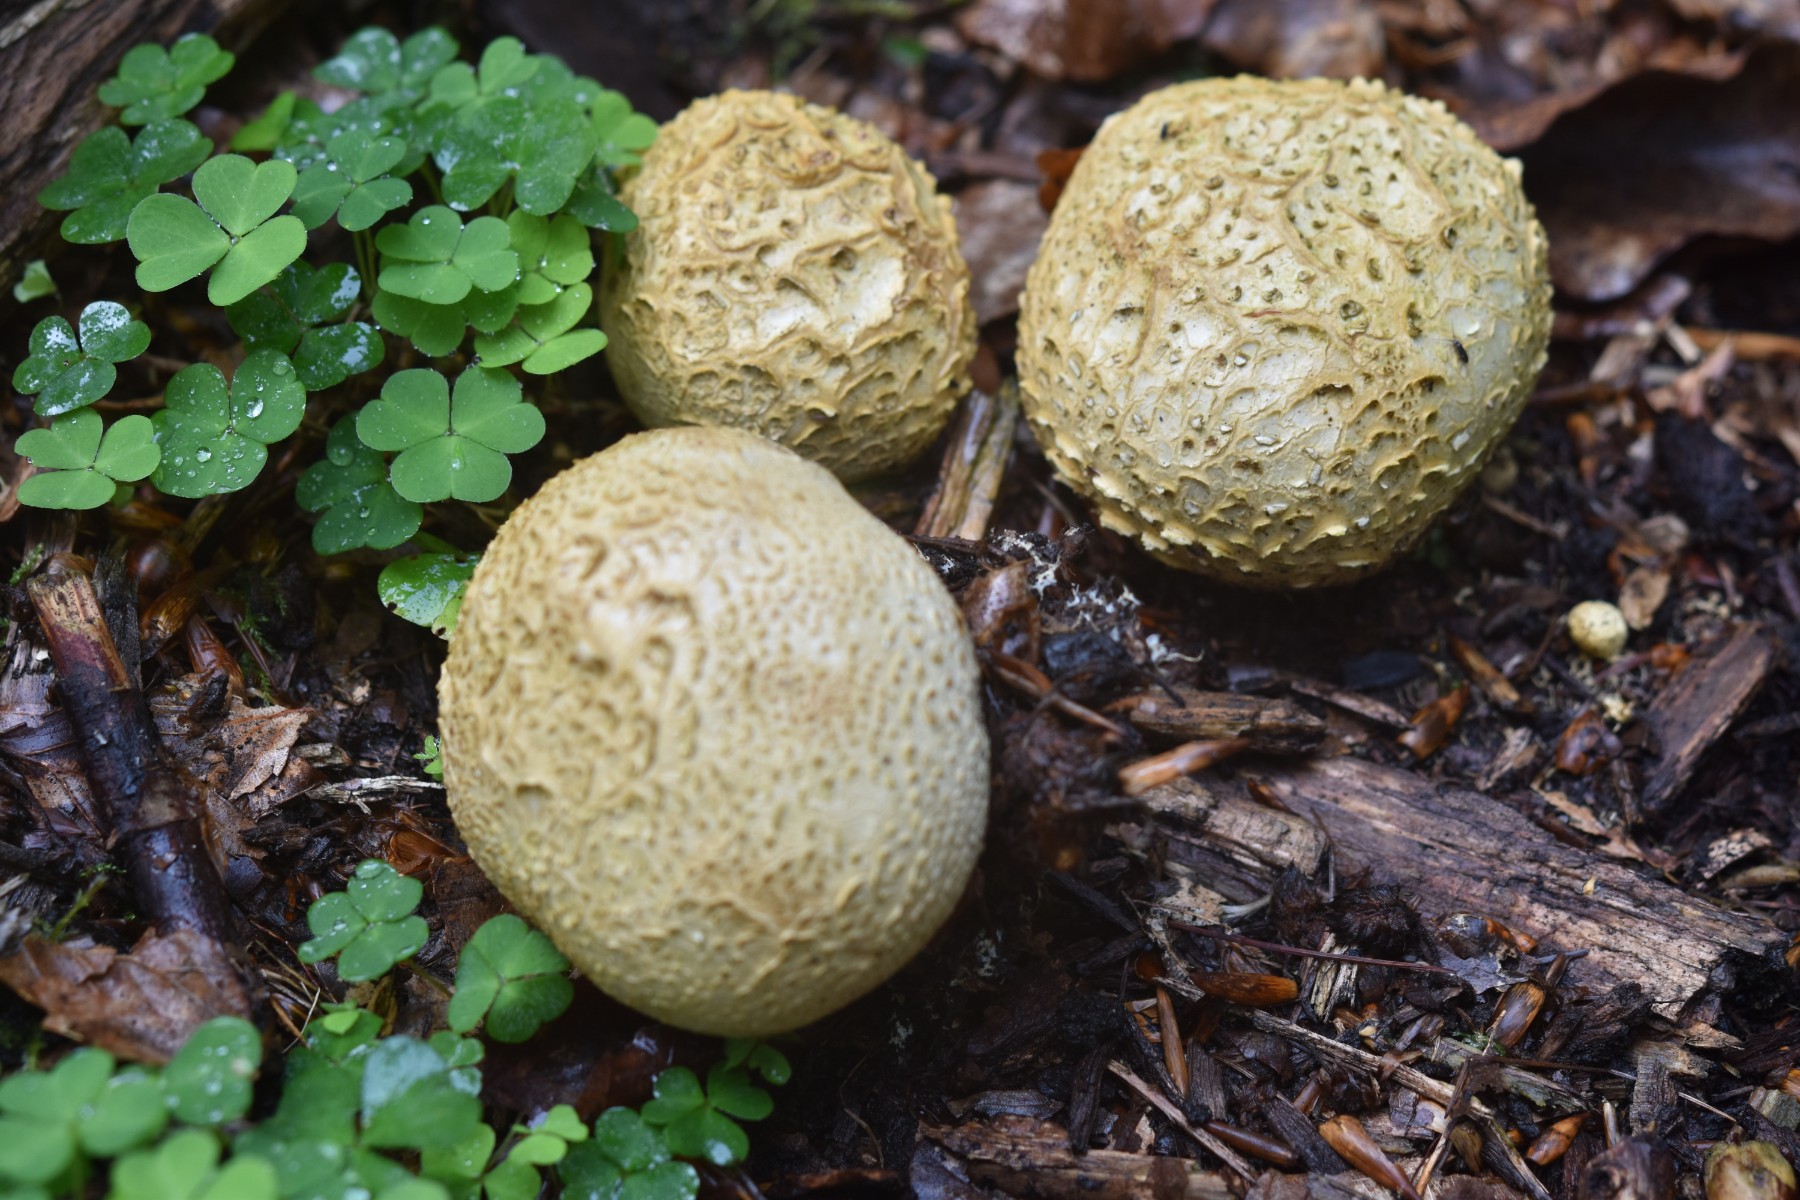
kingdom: Fungi
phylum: Basidiomycota
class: Agaricomycetes
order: Boletales
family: Sclerodermataceae
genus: Scleroderma
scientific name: Scleroderma citrinum
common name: almindelig bruskbold
